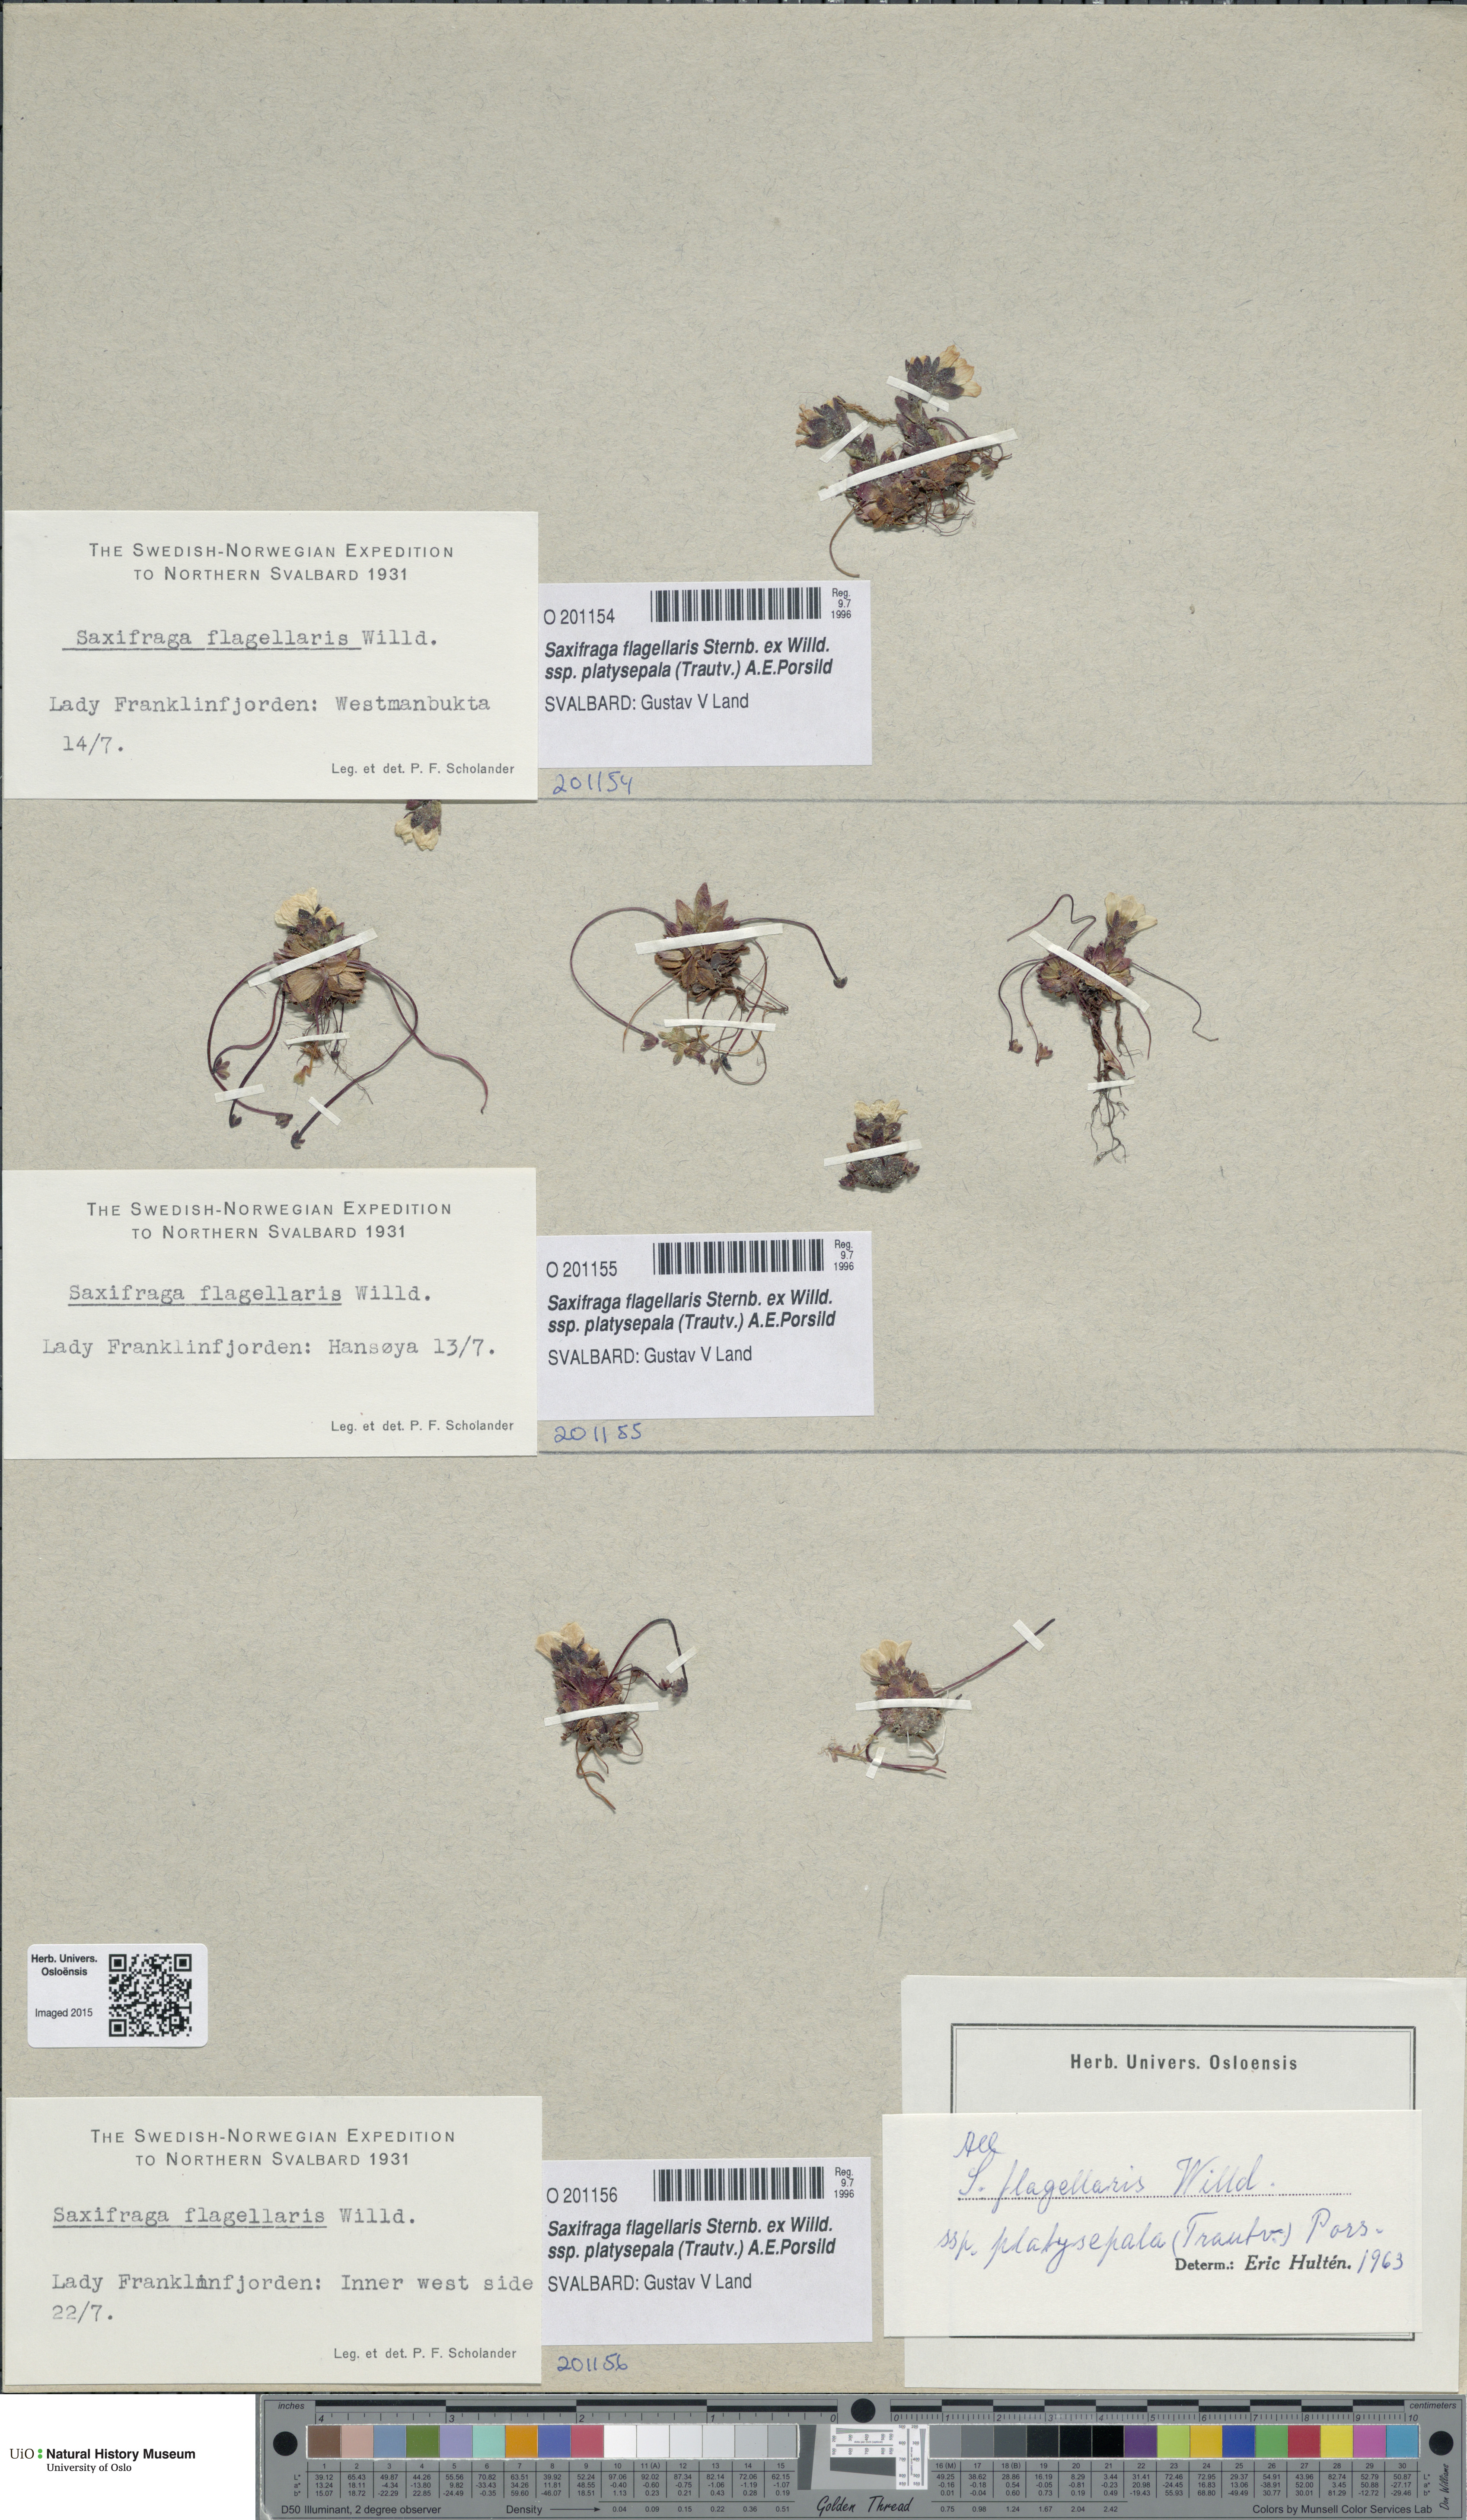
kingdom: Plantae
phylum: Tracheophyta
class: Magnoliopsida
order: Saxifragales
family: Saxifragaceae
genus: Saxifraga
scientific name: Saxifraga platysepala
